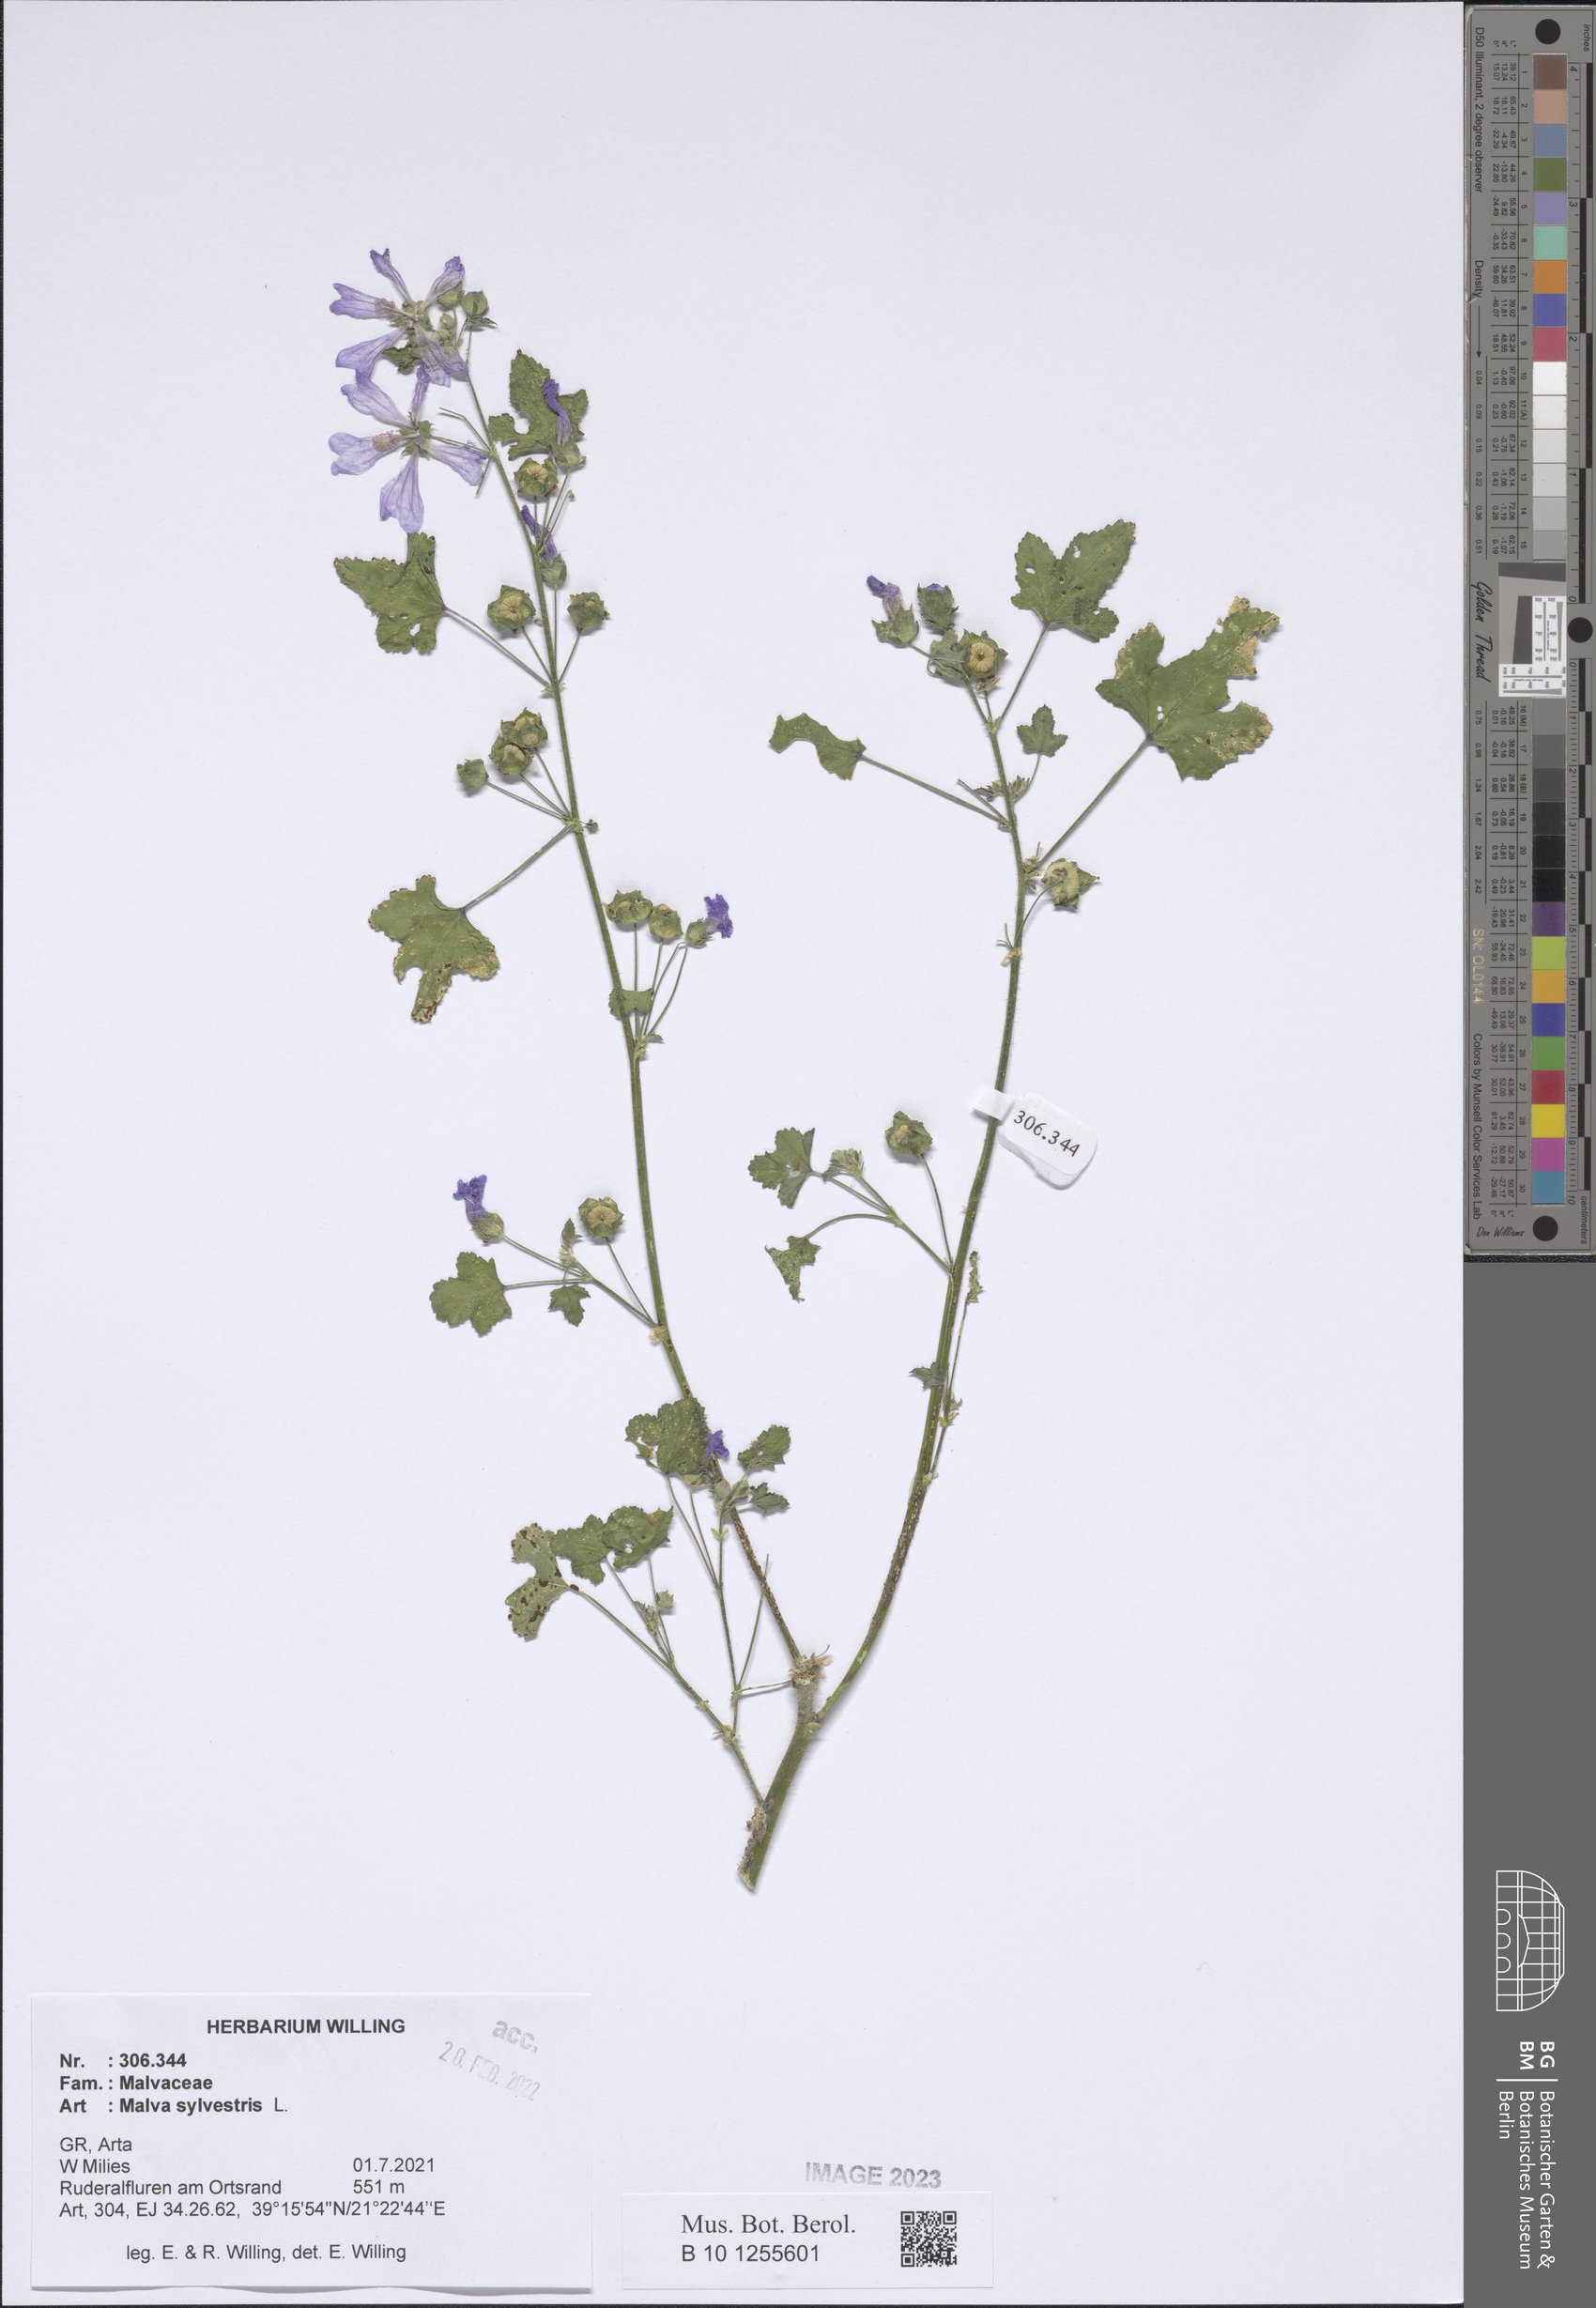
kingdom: Plantae
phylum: Tracheophyta
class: Magnoliopsida
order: Malvales
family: Malvaceae
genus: Malva
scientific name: Malva sylvestris
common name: Common mallow
